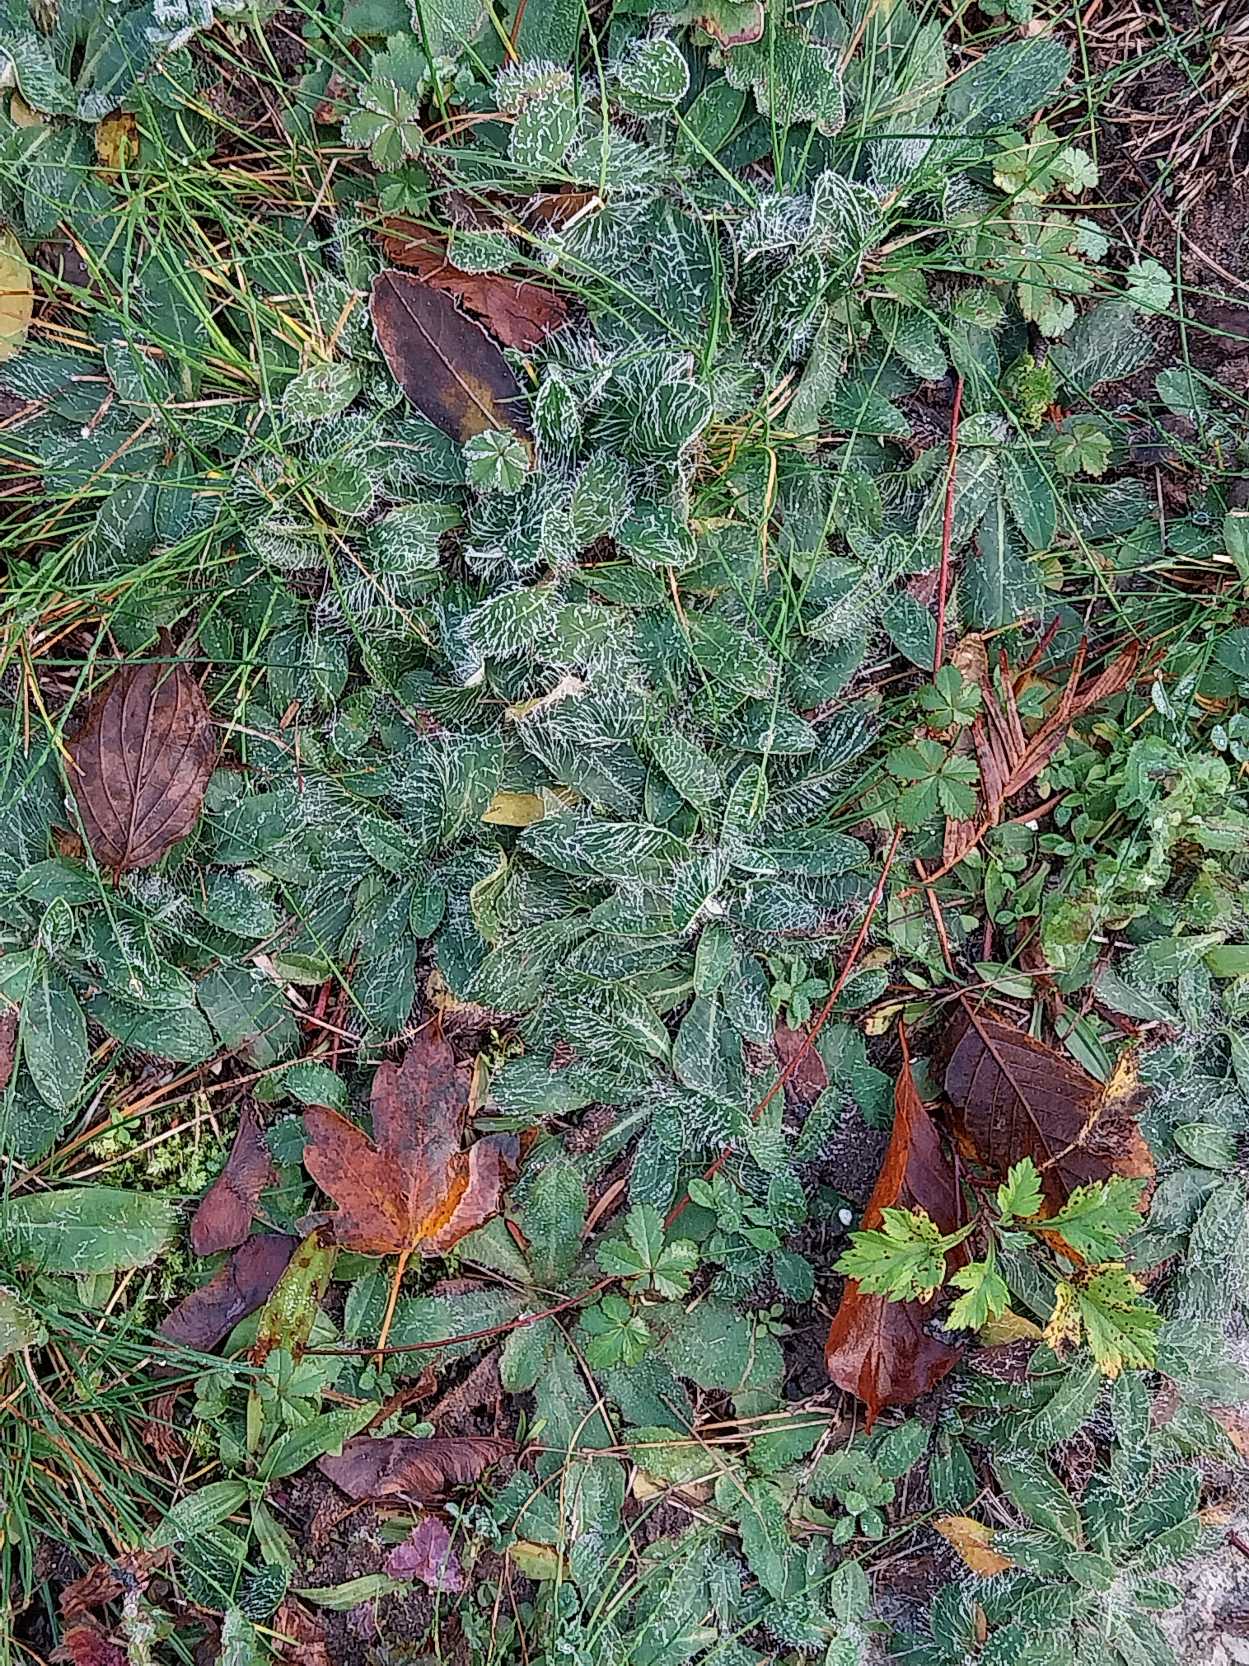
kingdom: Plantae
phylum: Tracheophyta
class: Magnoliopsida
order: Asterales
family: Asteraceae
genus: Pilosella
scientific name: Pilosella officinarum
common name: Håret høgeurt
